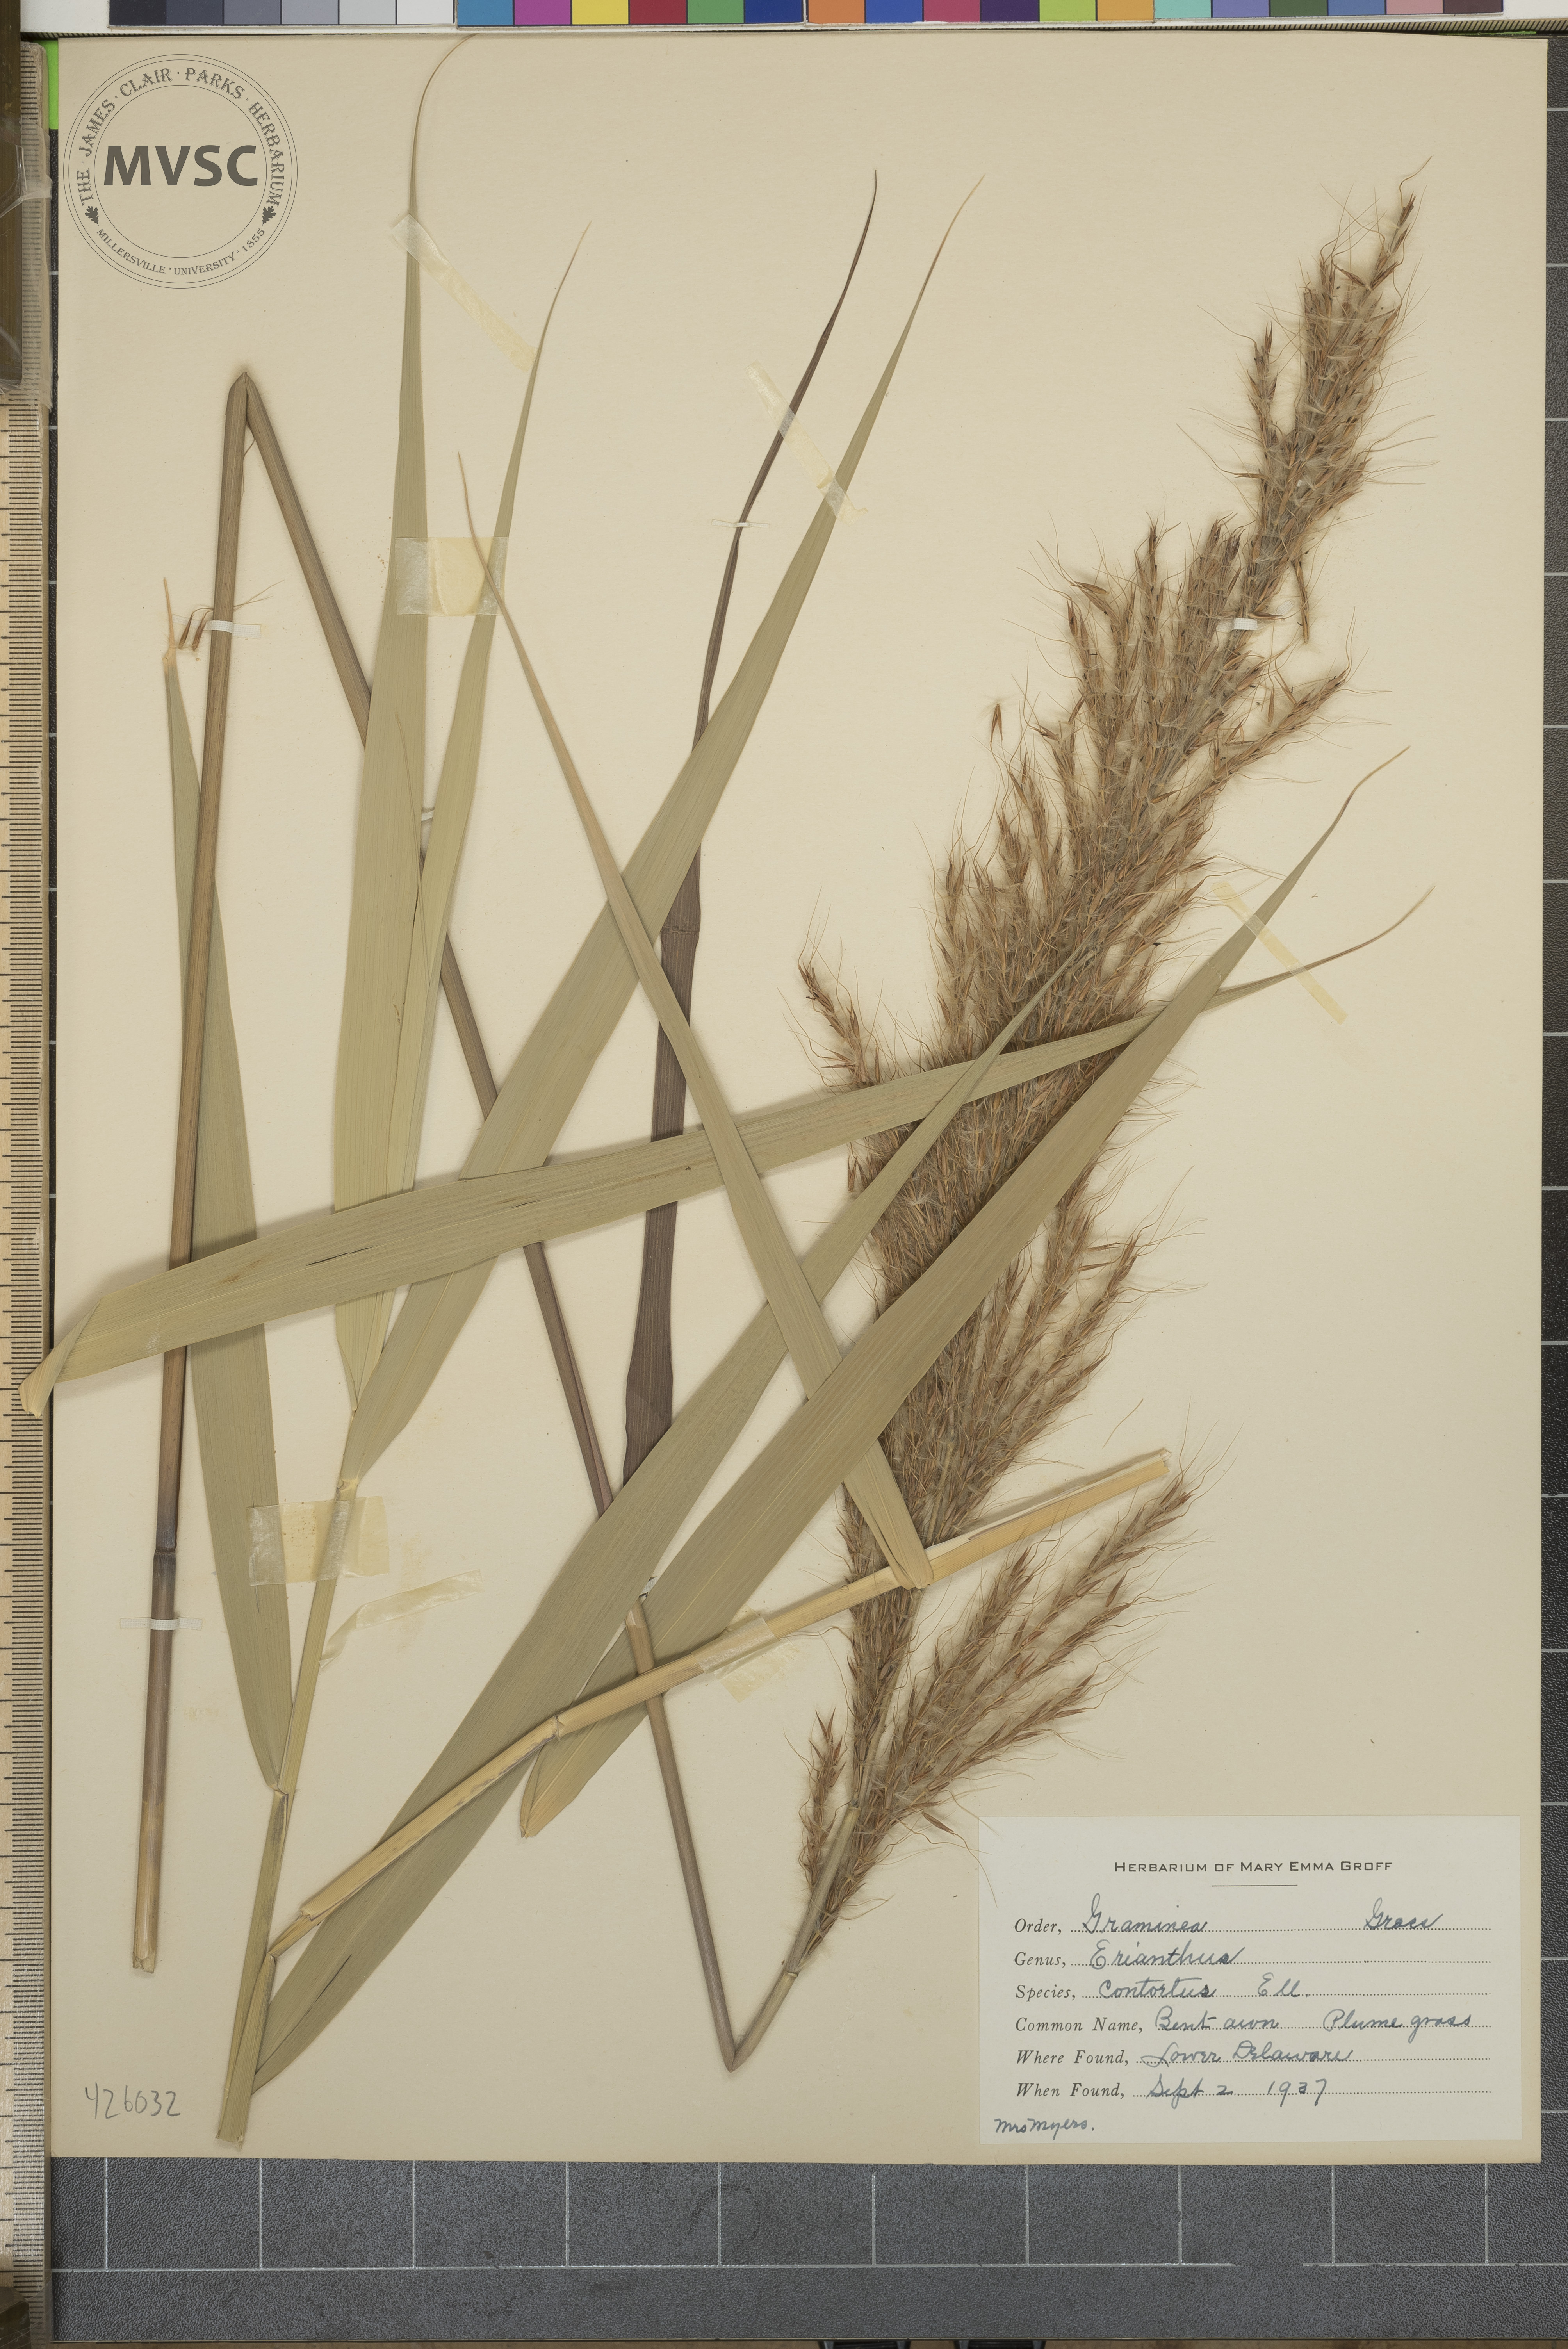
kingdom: Plantae
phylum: Tracheophyta
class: Liliopsida
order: Poales
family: Poaceae
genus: Erianthus
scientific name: Erianthus brevibarbis
